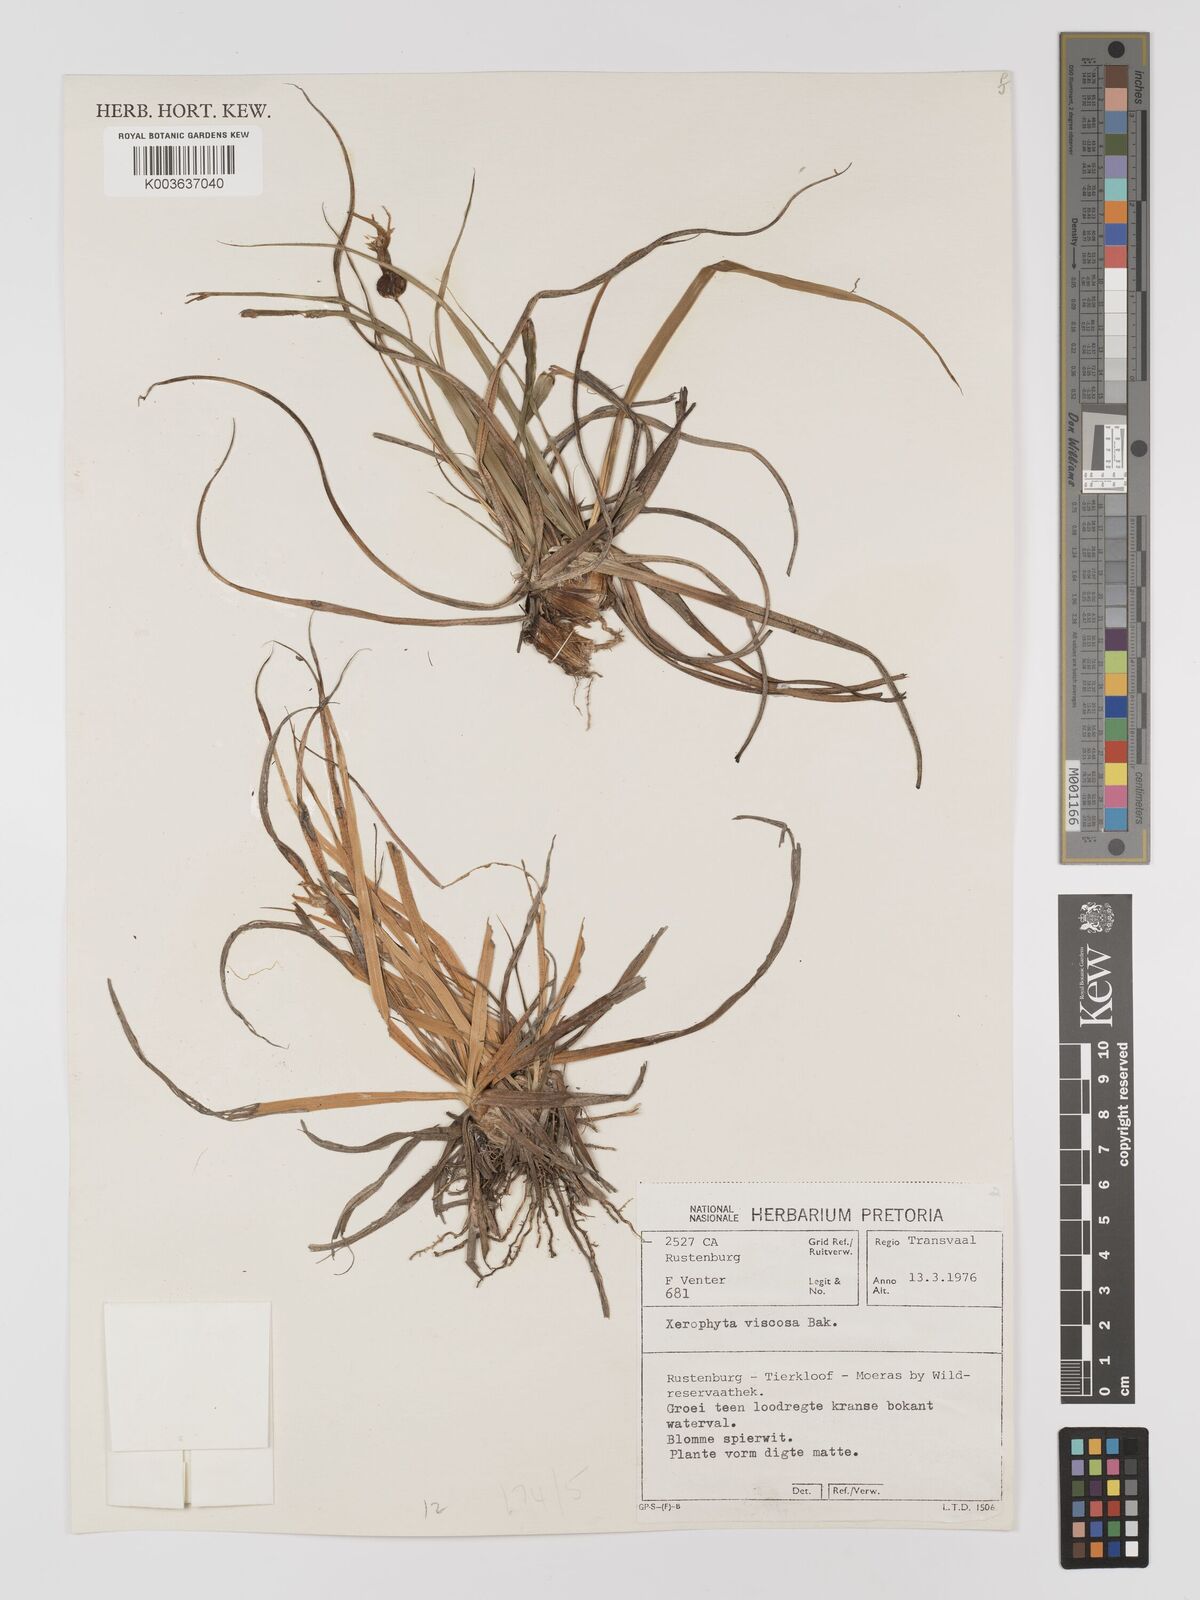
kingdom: Plantae
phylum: Tracheophyta
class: Liliopsida
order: Pandanales
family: Velloziaceae
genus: Xerophyta
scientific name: Xerophyta viscosa
